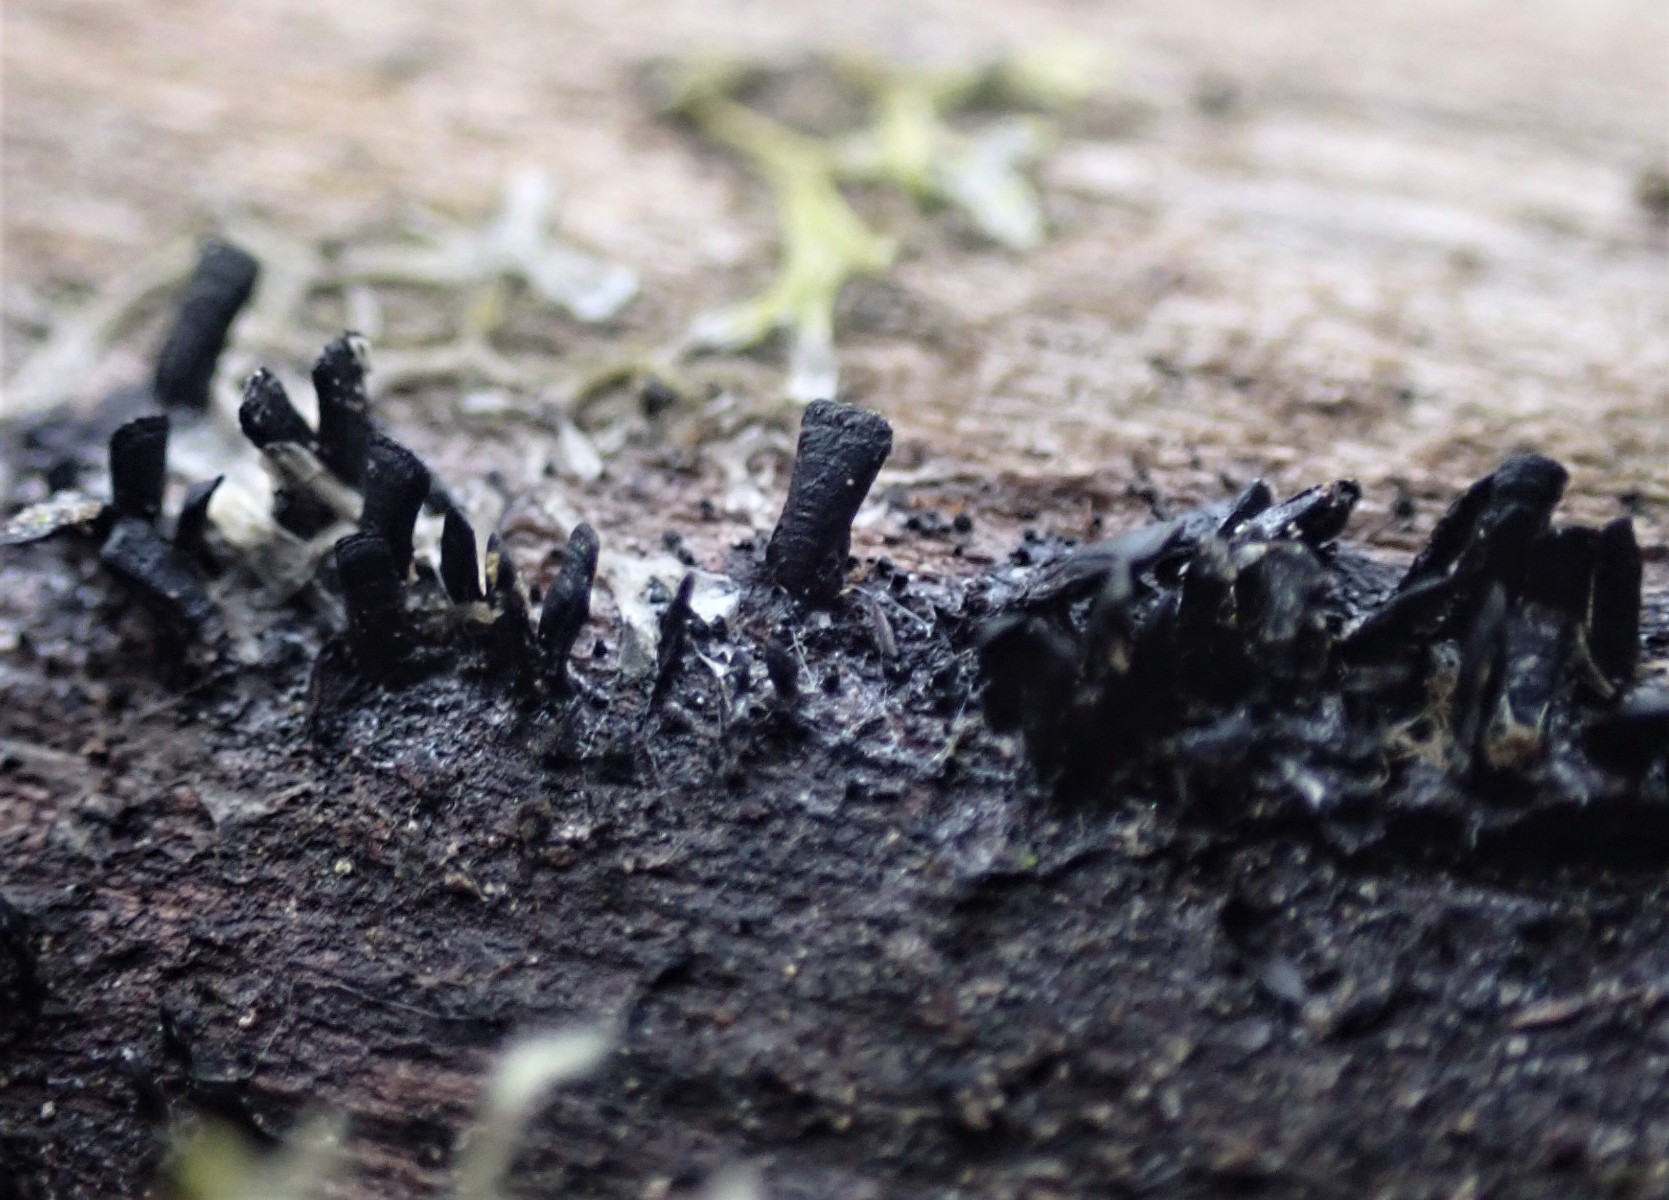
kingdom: Fungi
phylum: Ascomycota
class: Eurotiomycetes
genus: Glyphium
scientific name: Glyphium elatum
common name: kuløkse
